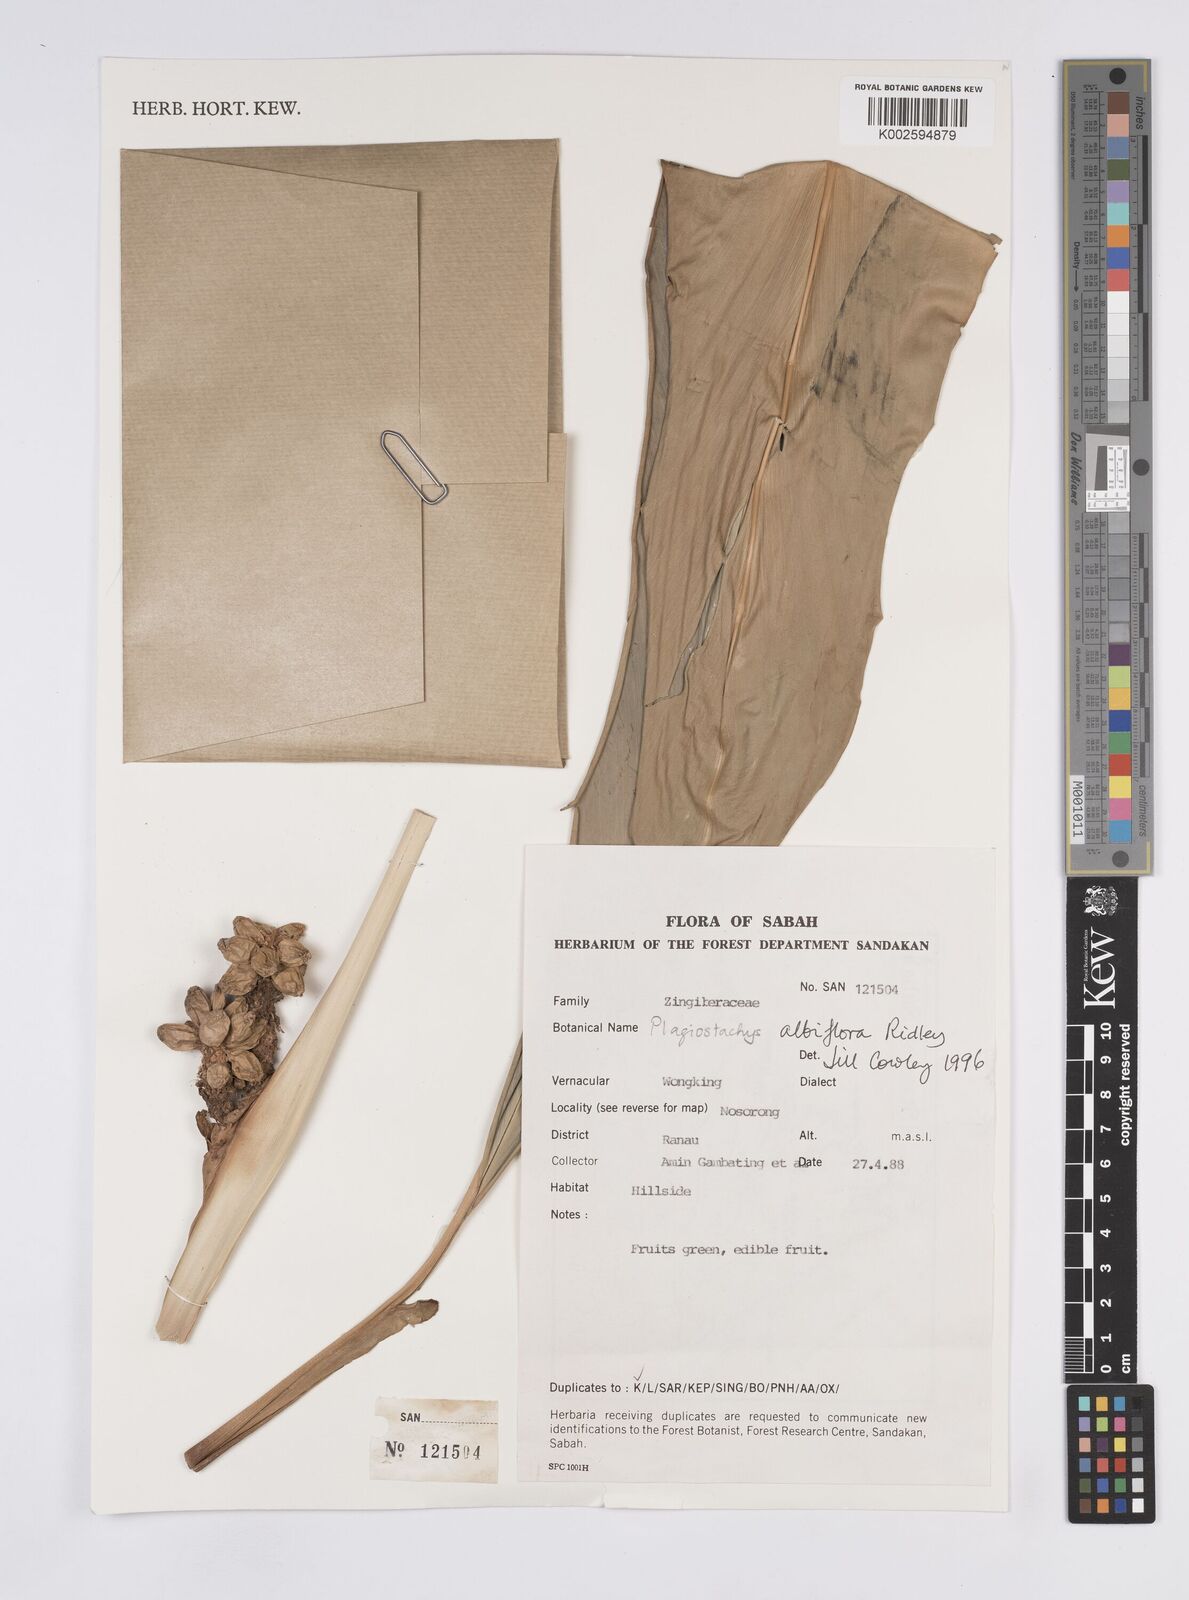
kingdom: Plantae
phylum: Tracheophyta
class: Liliopsida
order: Zingiberales
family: Zingiberaceae
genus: Plagiostachys
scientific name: Plagiostachys albiflora
